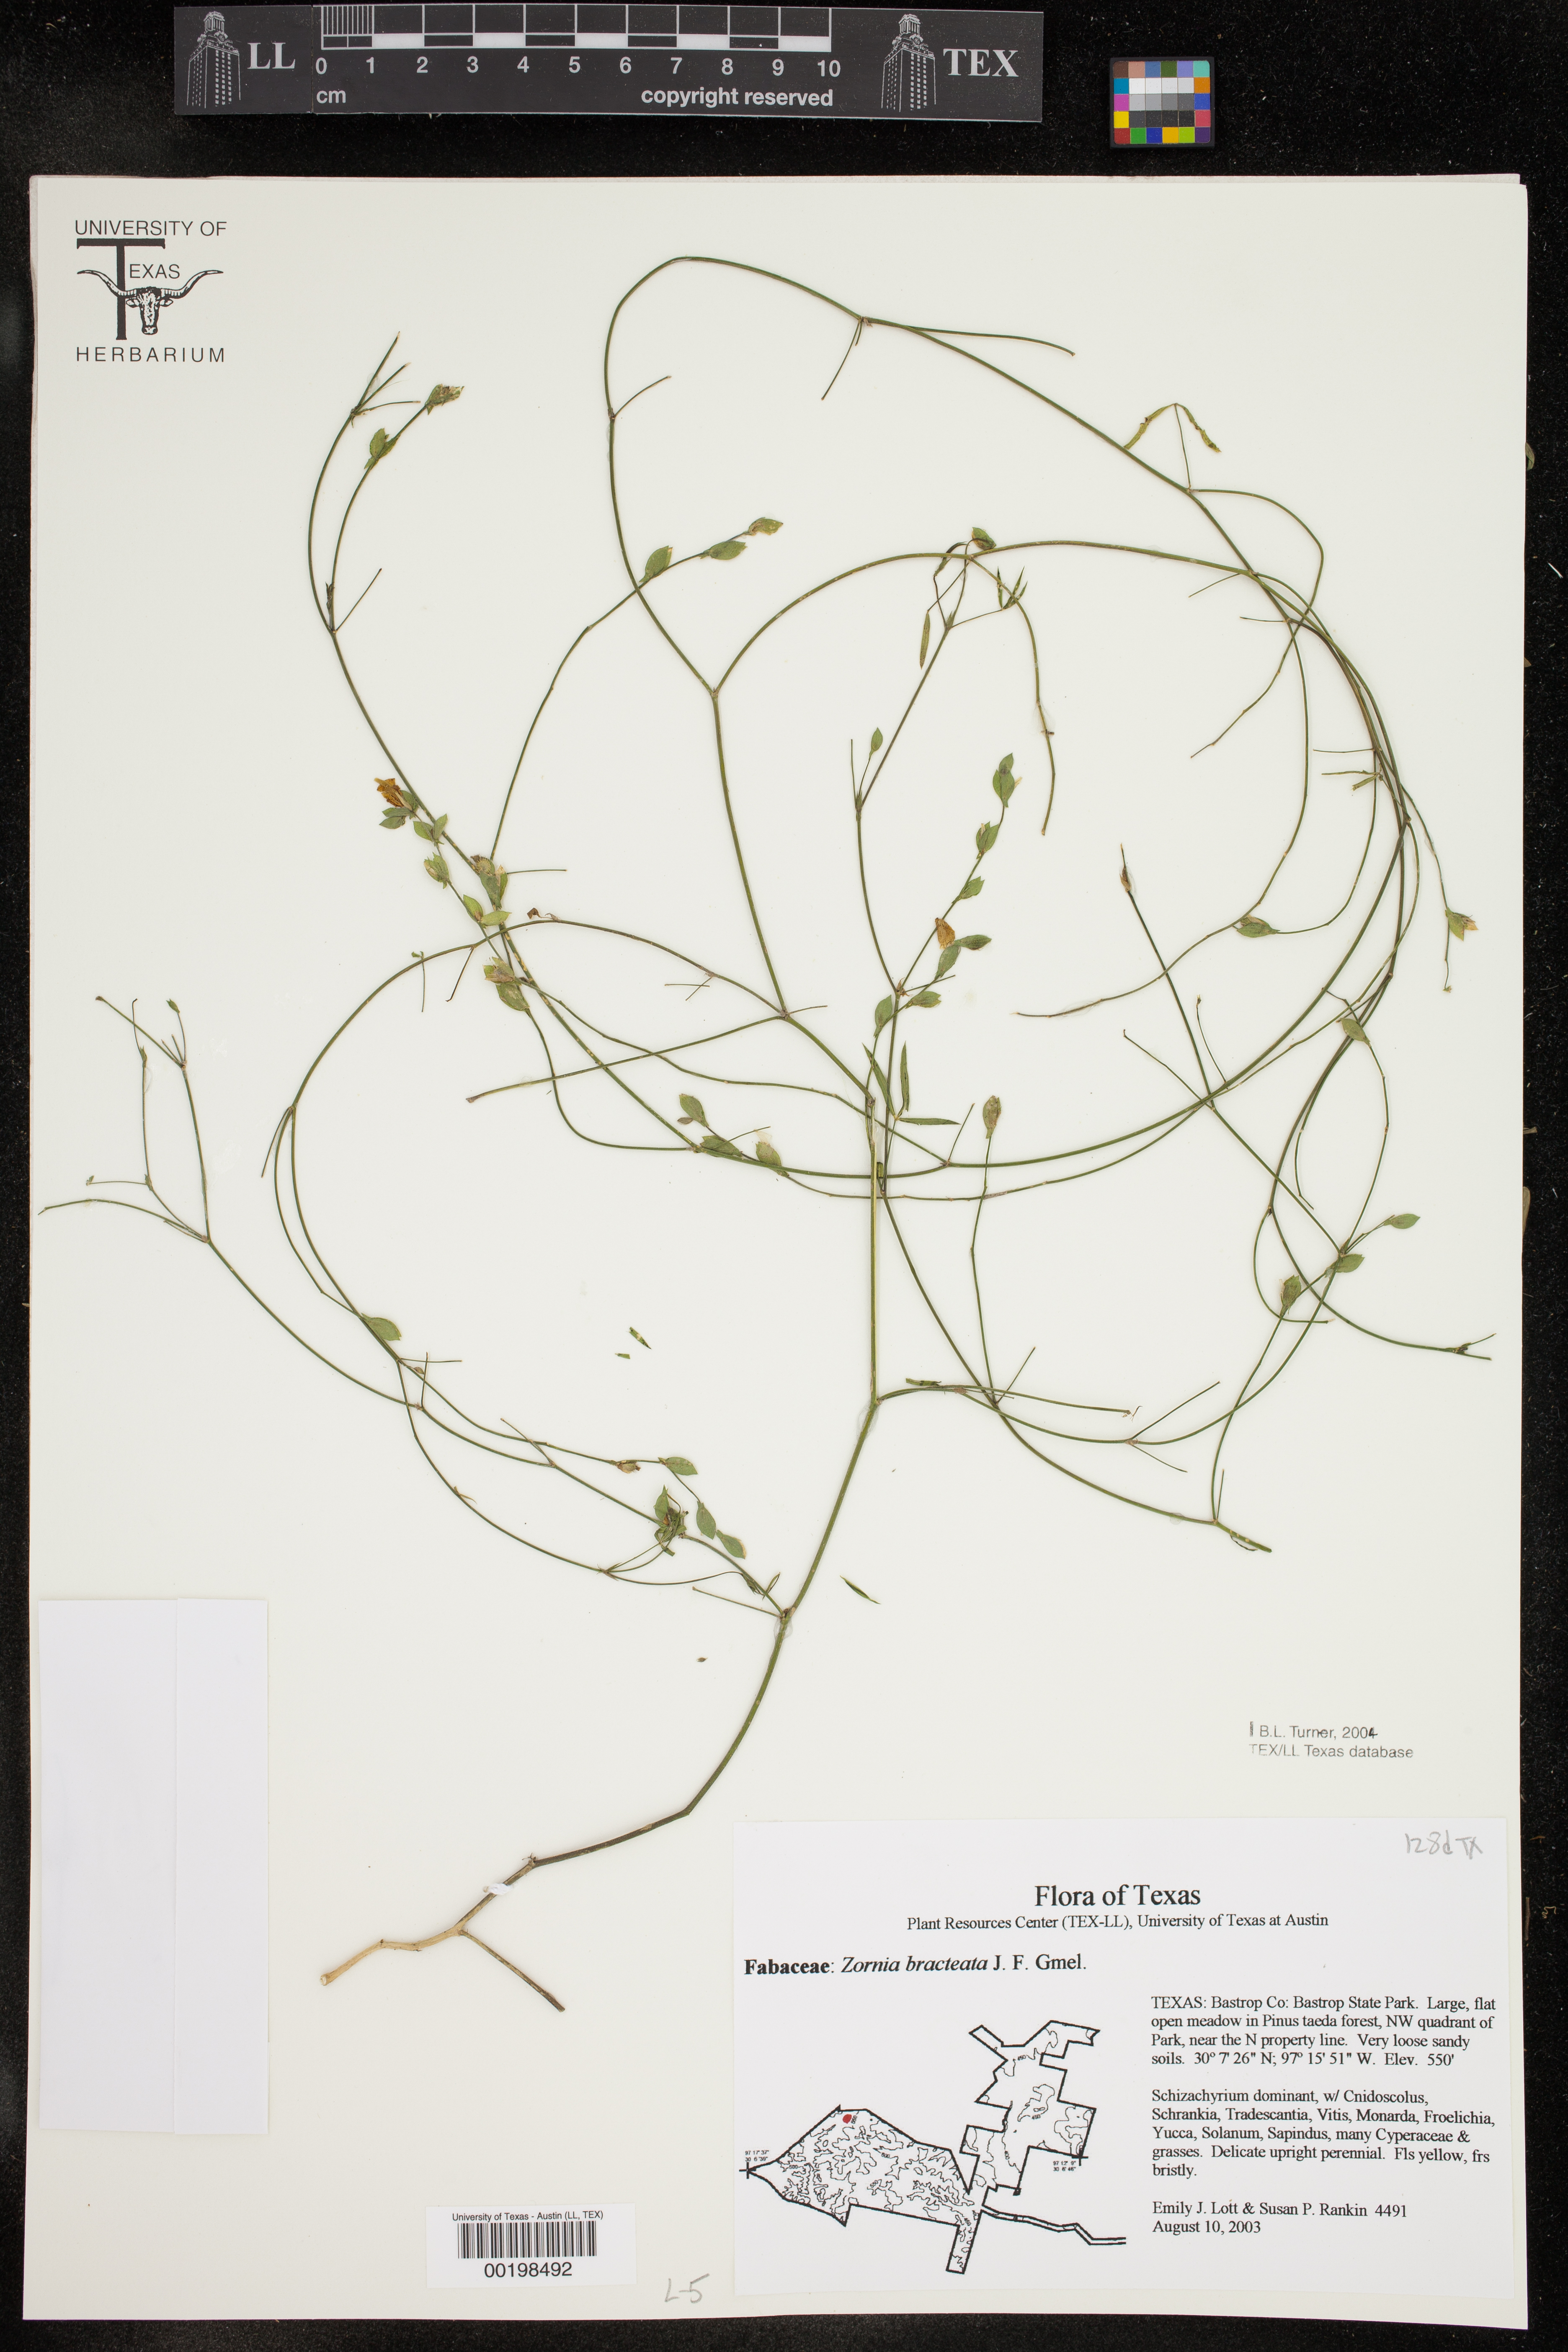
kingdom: Plantae
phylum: Tracheophyta
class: Magnoliopsida
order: Fabales
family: Fabaceae
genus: Zornia
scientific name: Zornia bracteata
